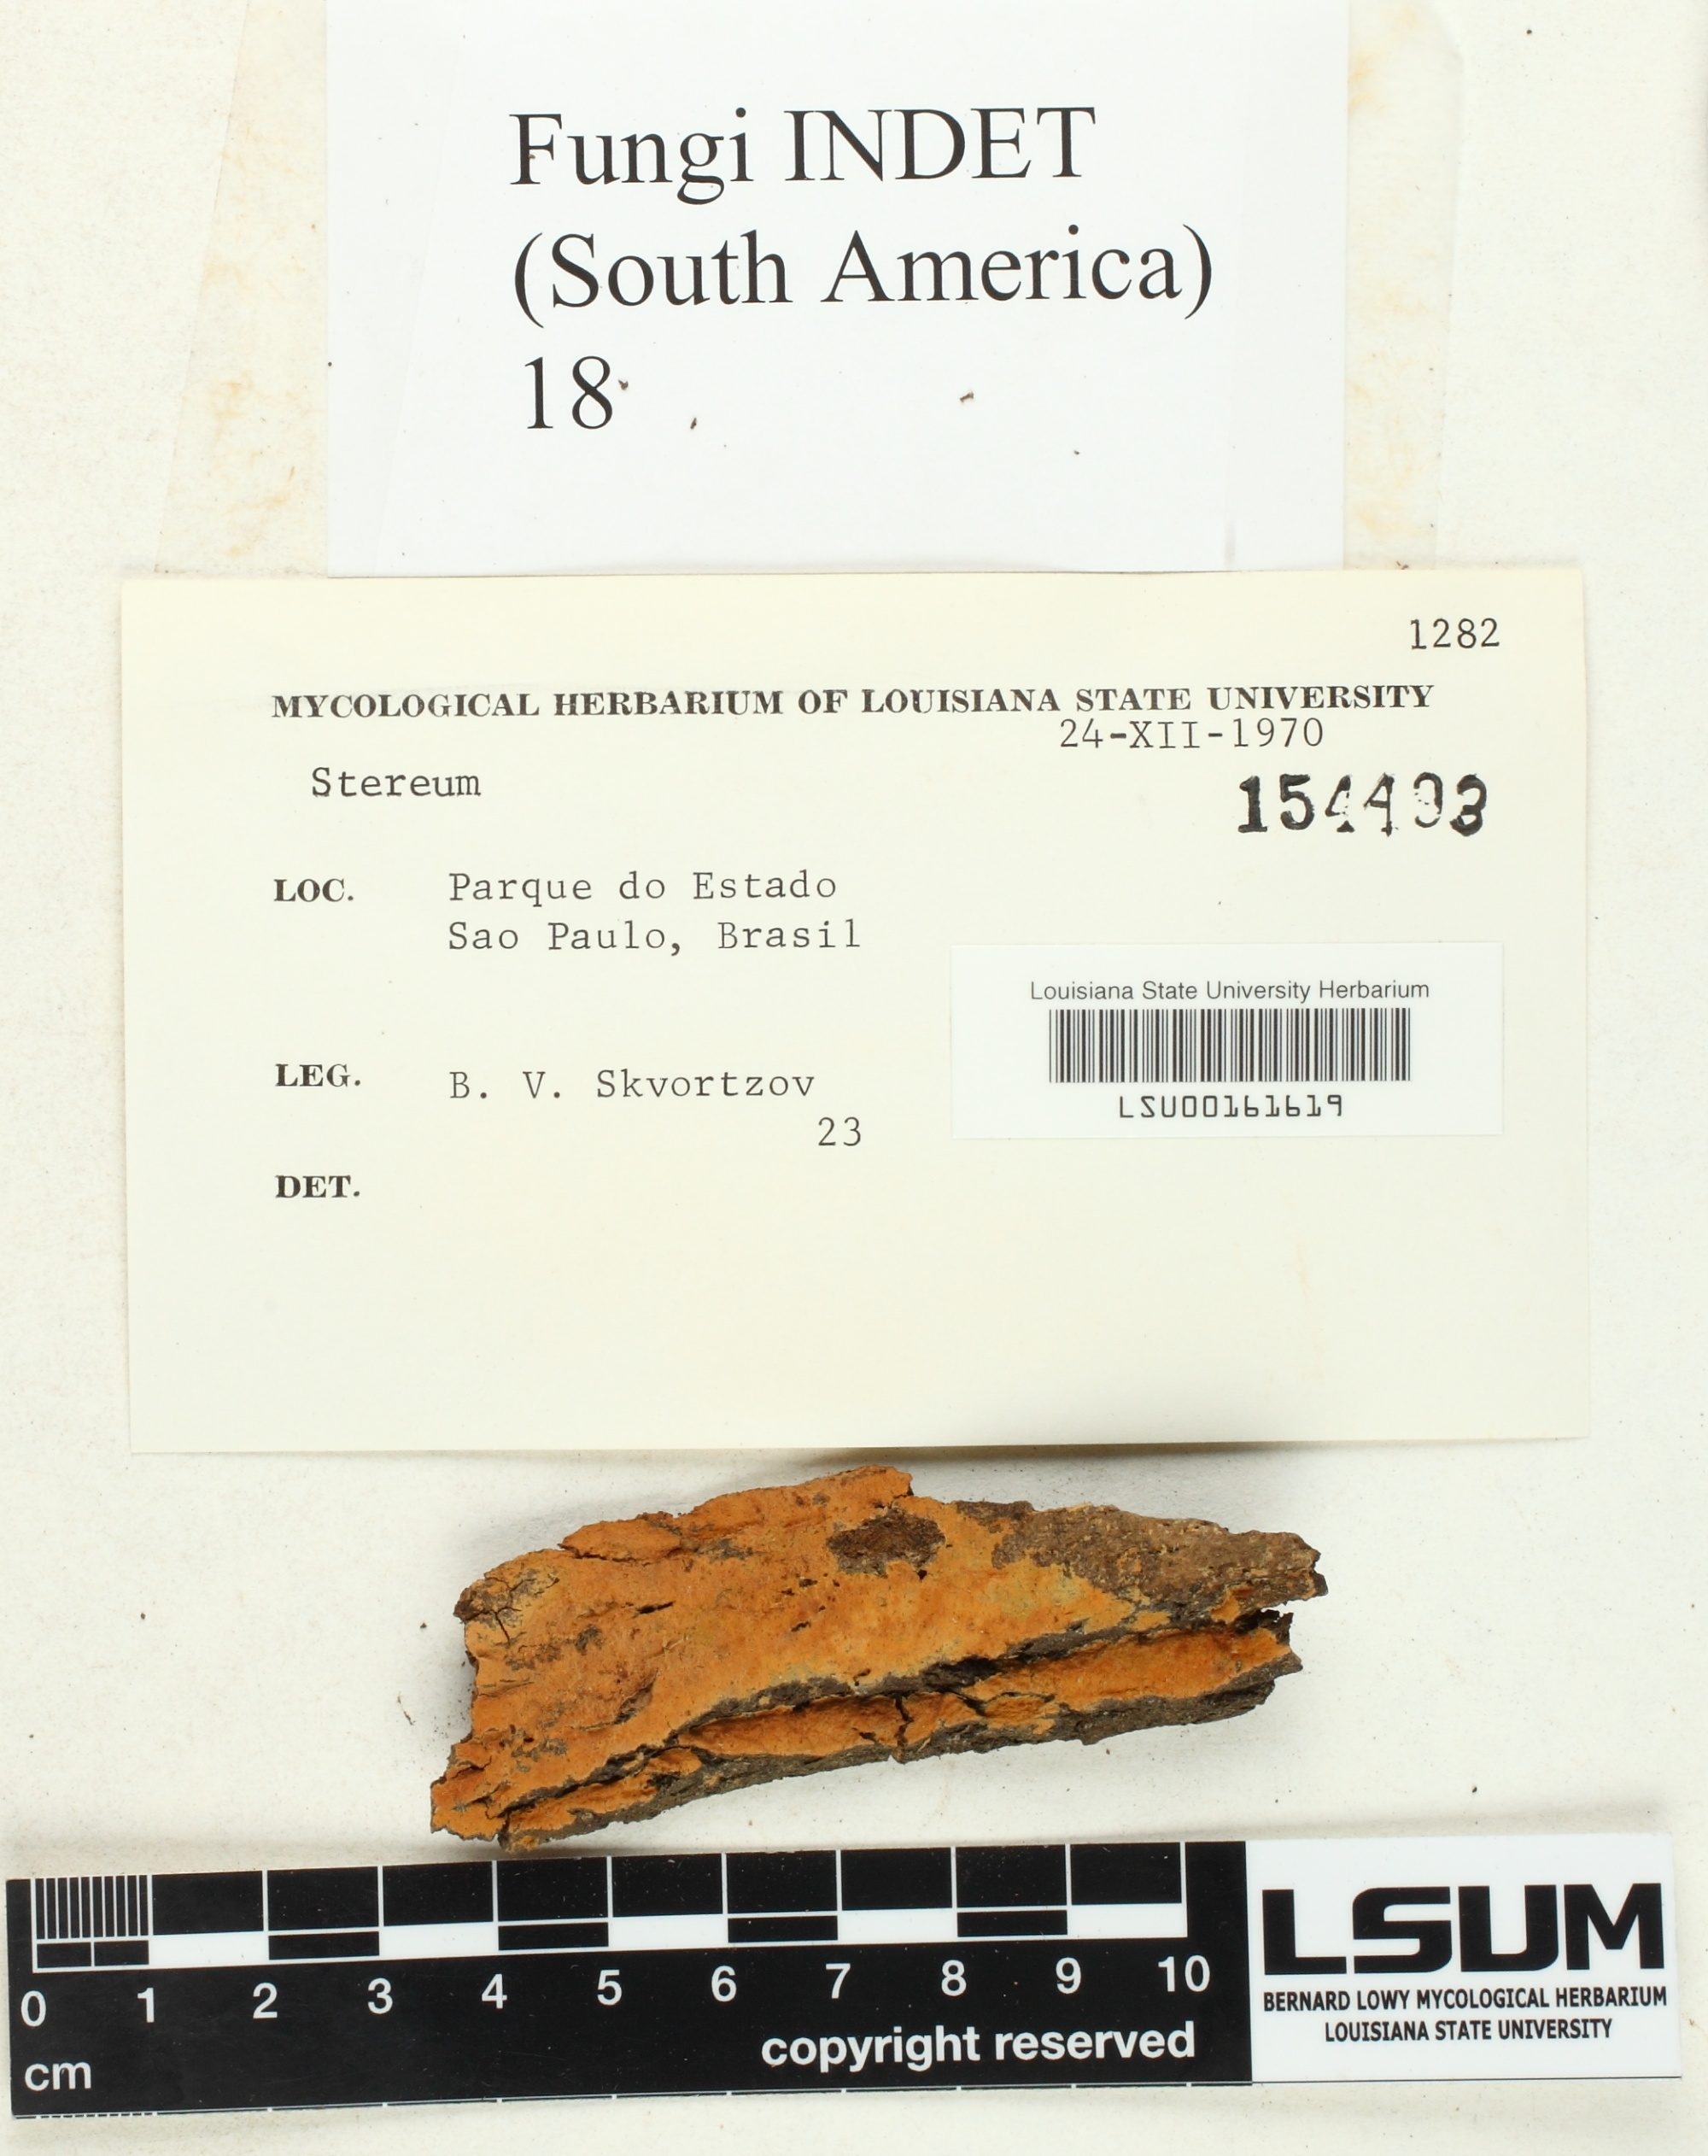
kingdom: Fungi
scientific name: Fungi
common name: Fungi
